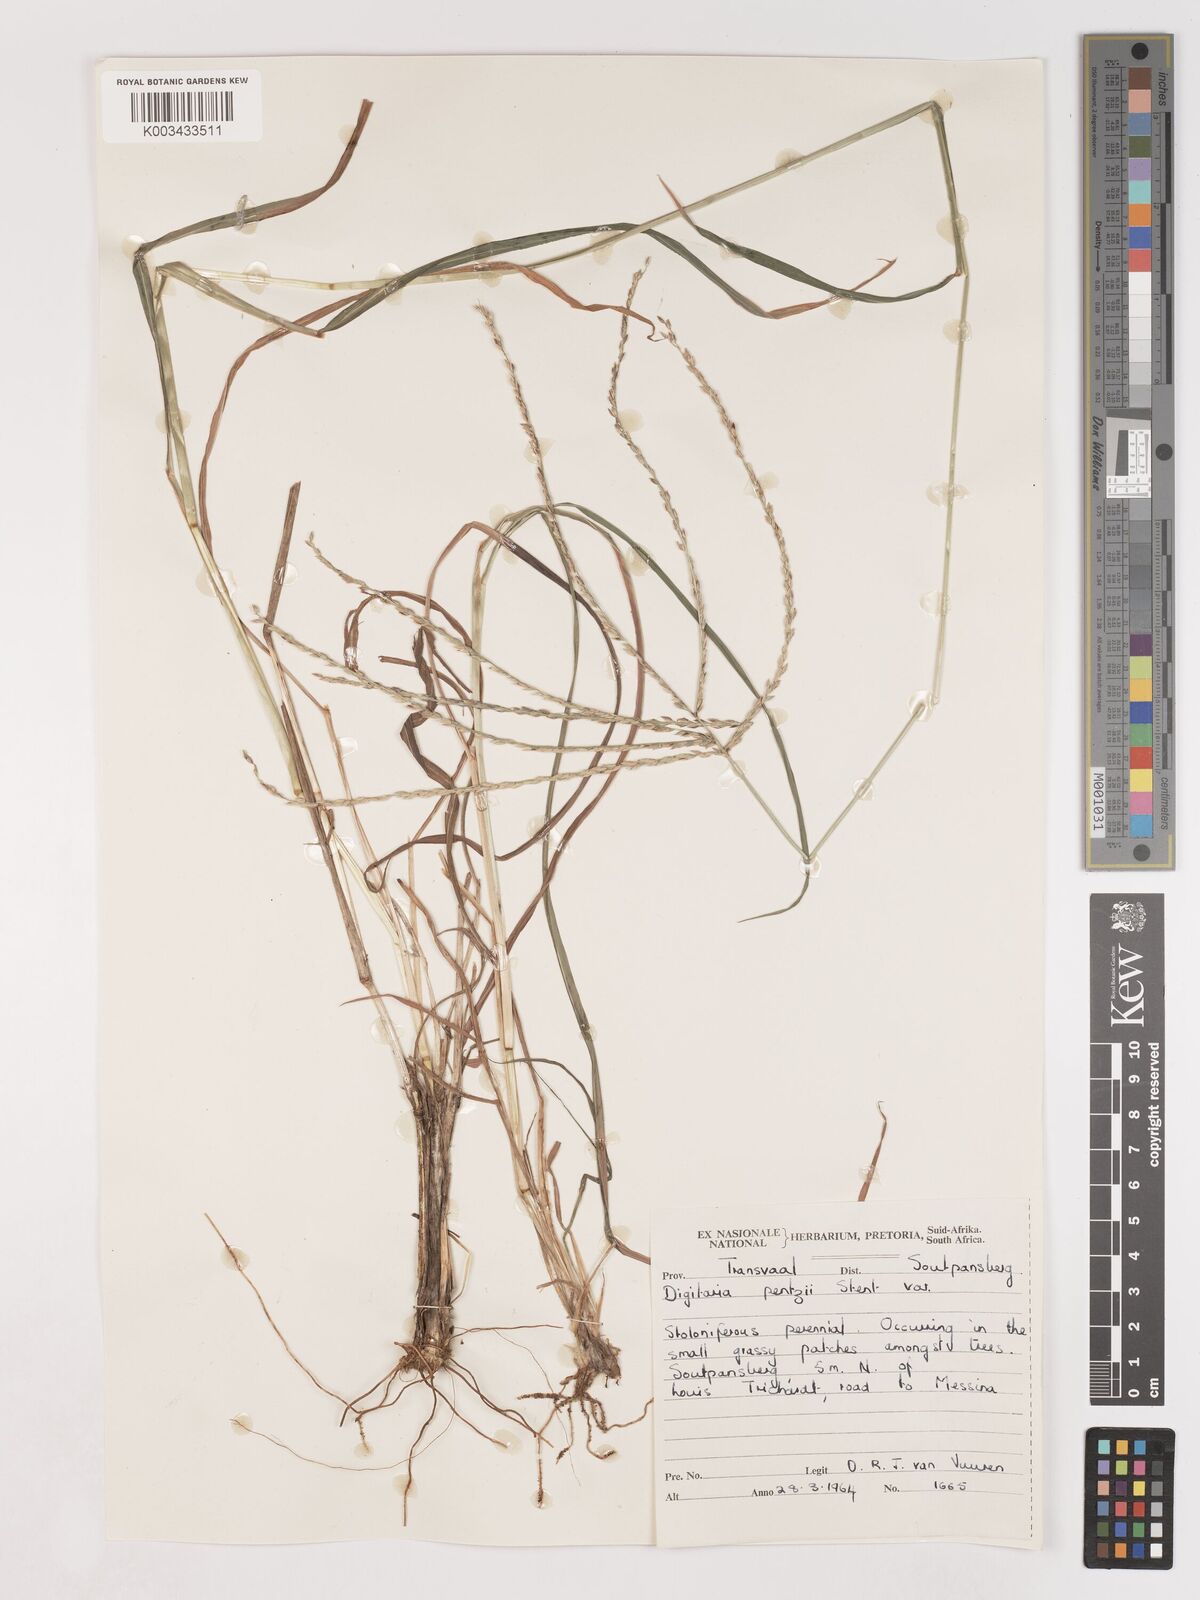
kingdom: Plantae
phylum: Tracheophyta
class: Liliopsida
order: Poales
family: Poaceae
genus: Digitaria
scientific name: Digitaria eriantha
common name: Digitgrass
